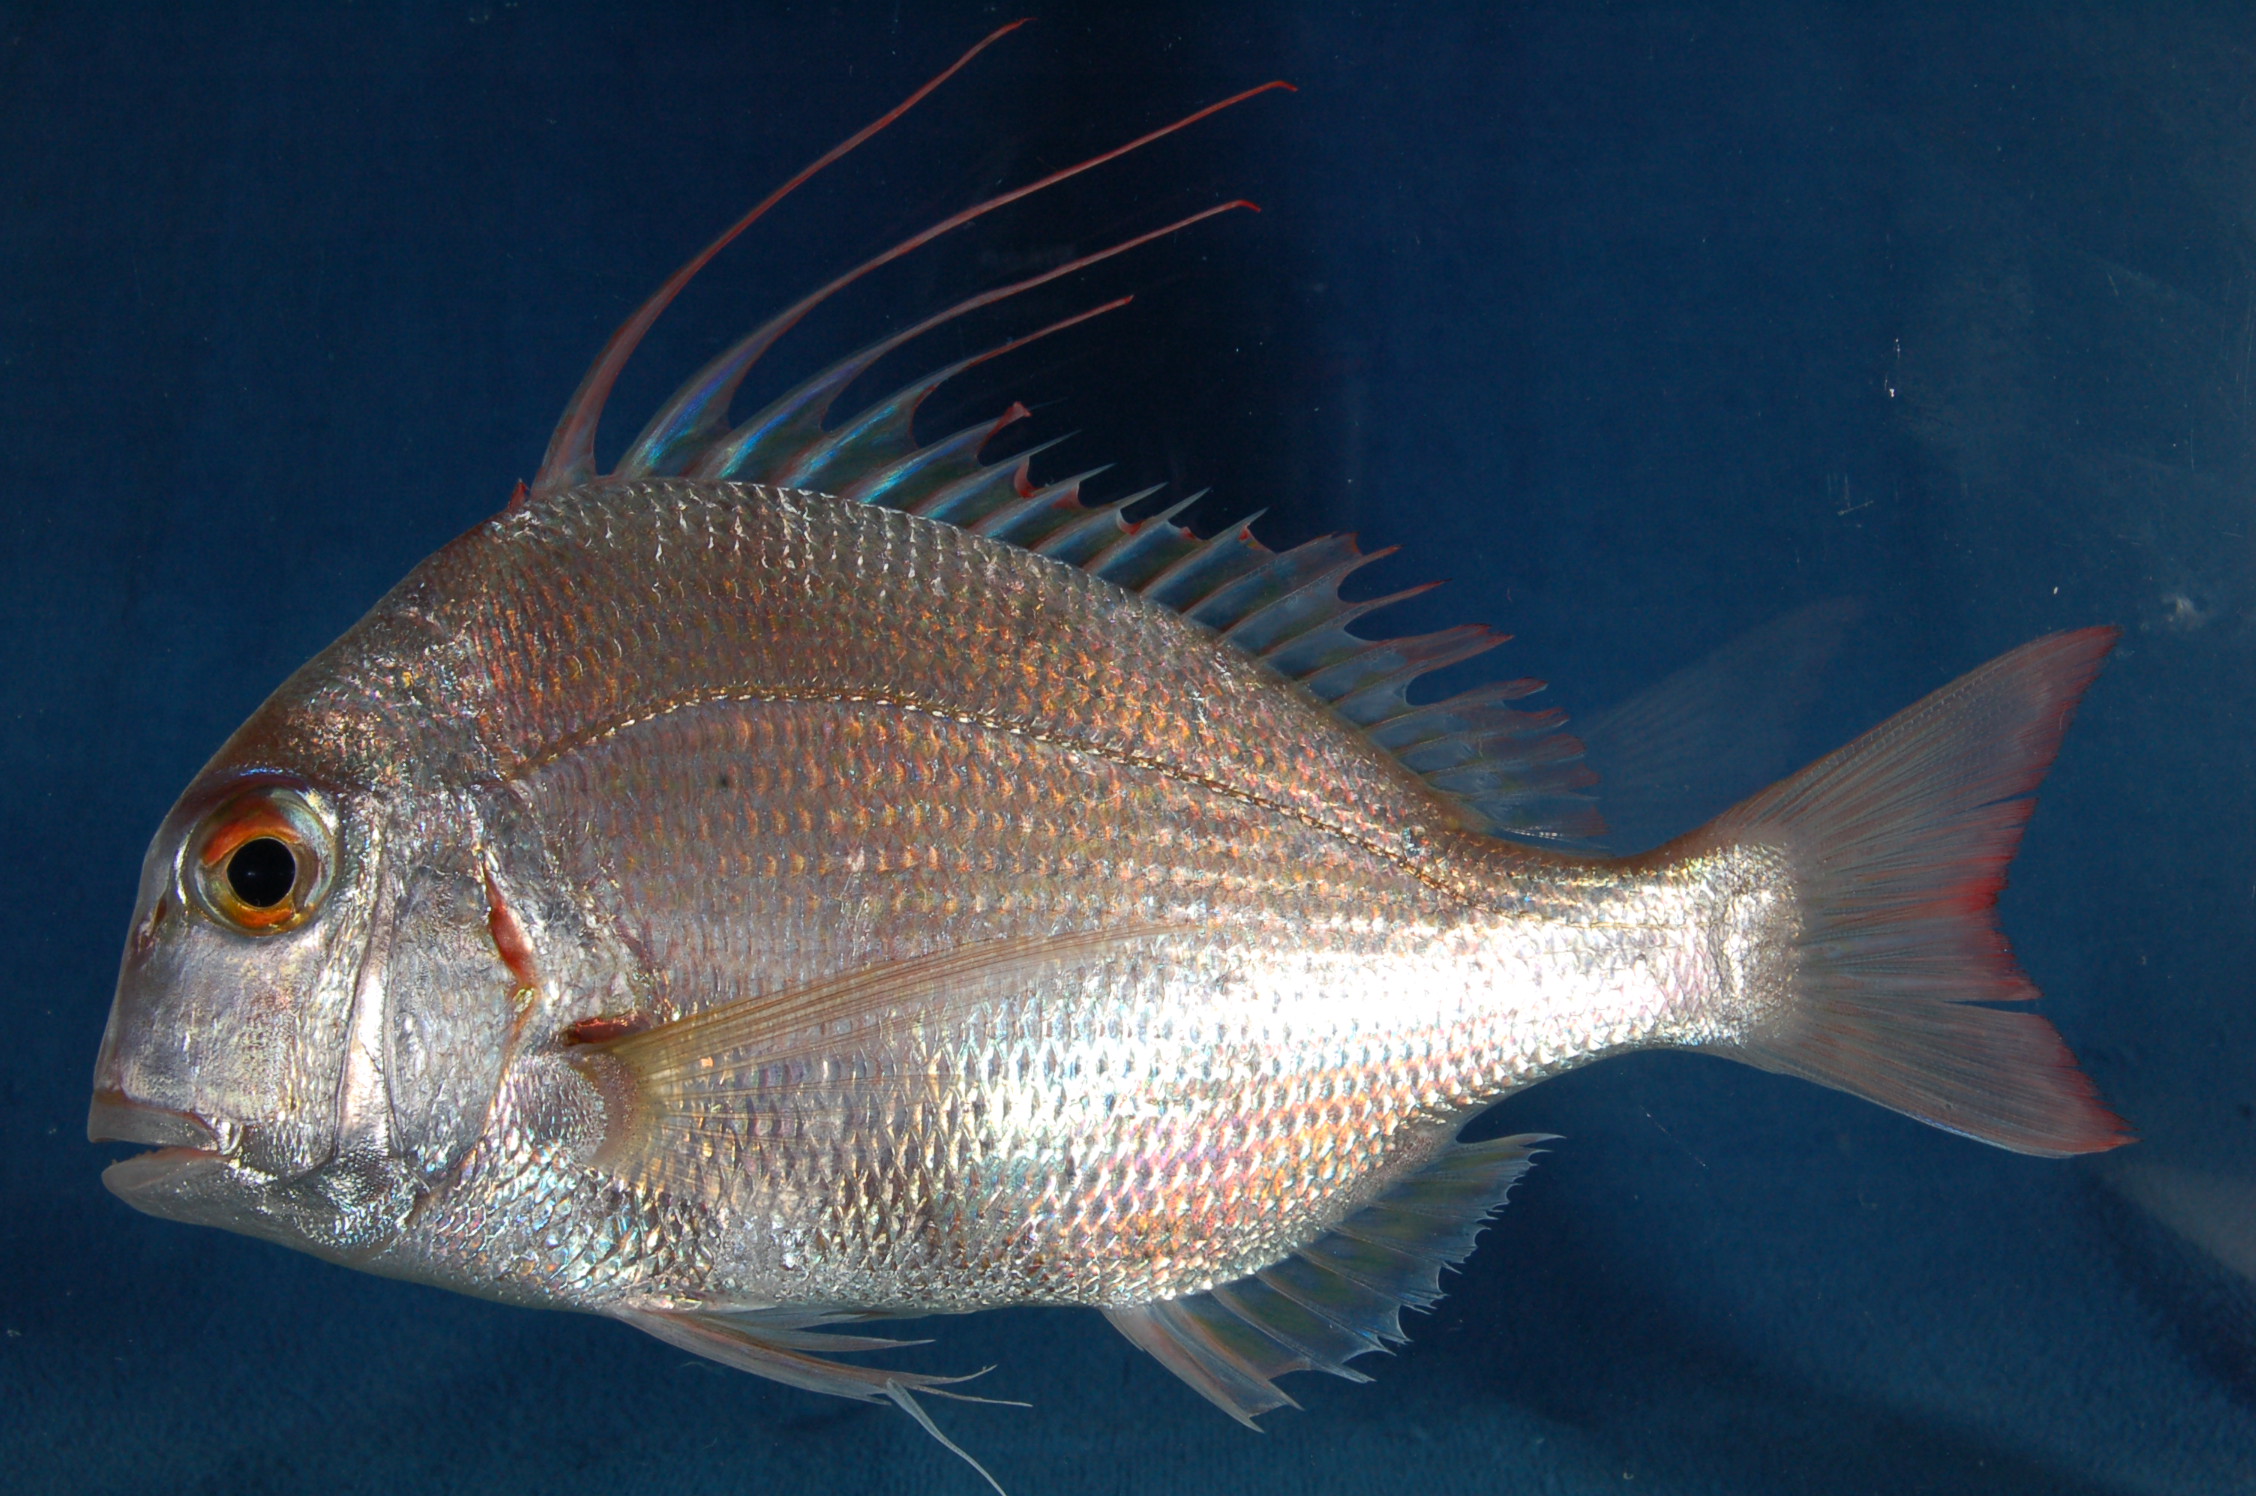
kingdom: Animalia
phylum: Chordata
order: Perciformes
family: Sparidae
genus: Argyrops
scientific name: Argyrops spinifer
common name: King soldier bream
